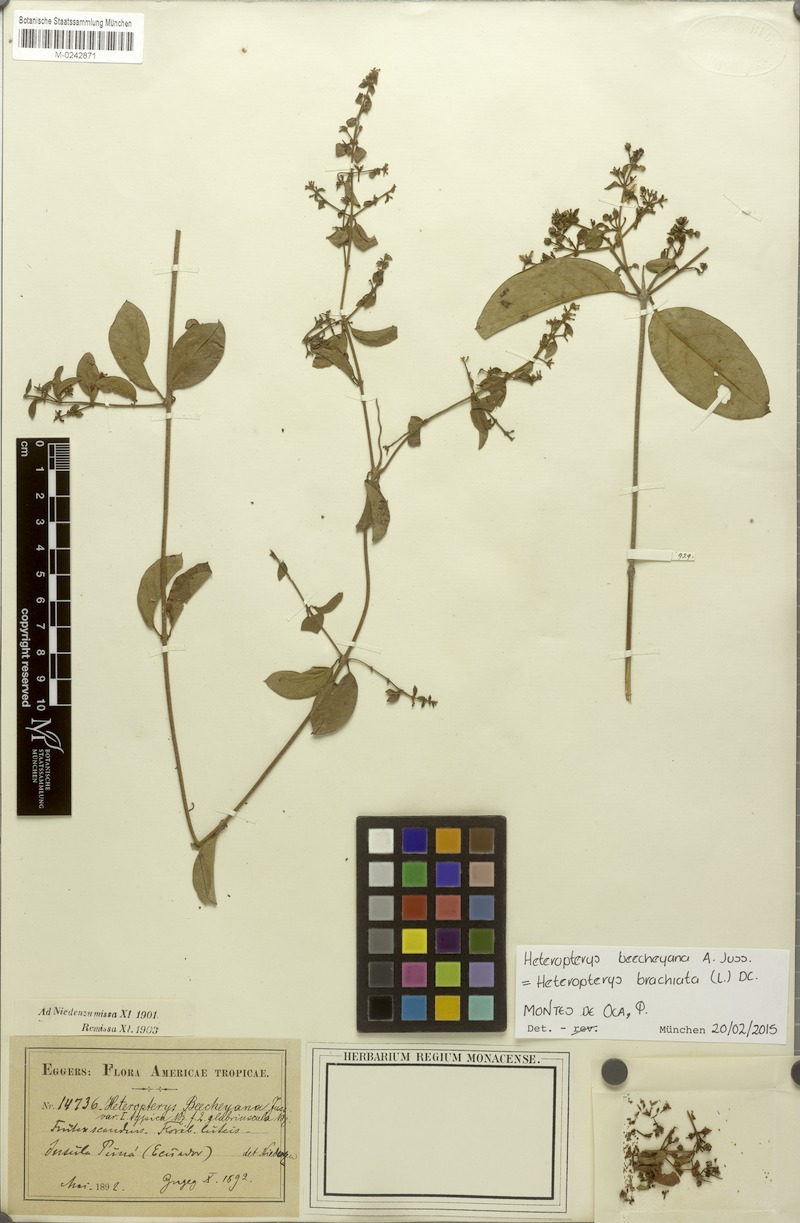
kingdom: Plantae
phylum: Tracheophyta
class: Magnoliopsida
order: Malpighiales
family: Malpighiaceae
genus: Heteropterys
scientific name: Heteropterys brachiata
